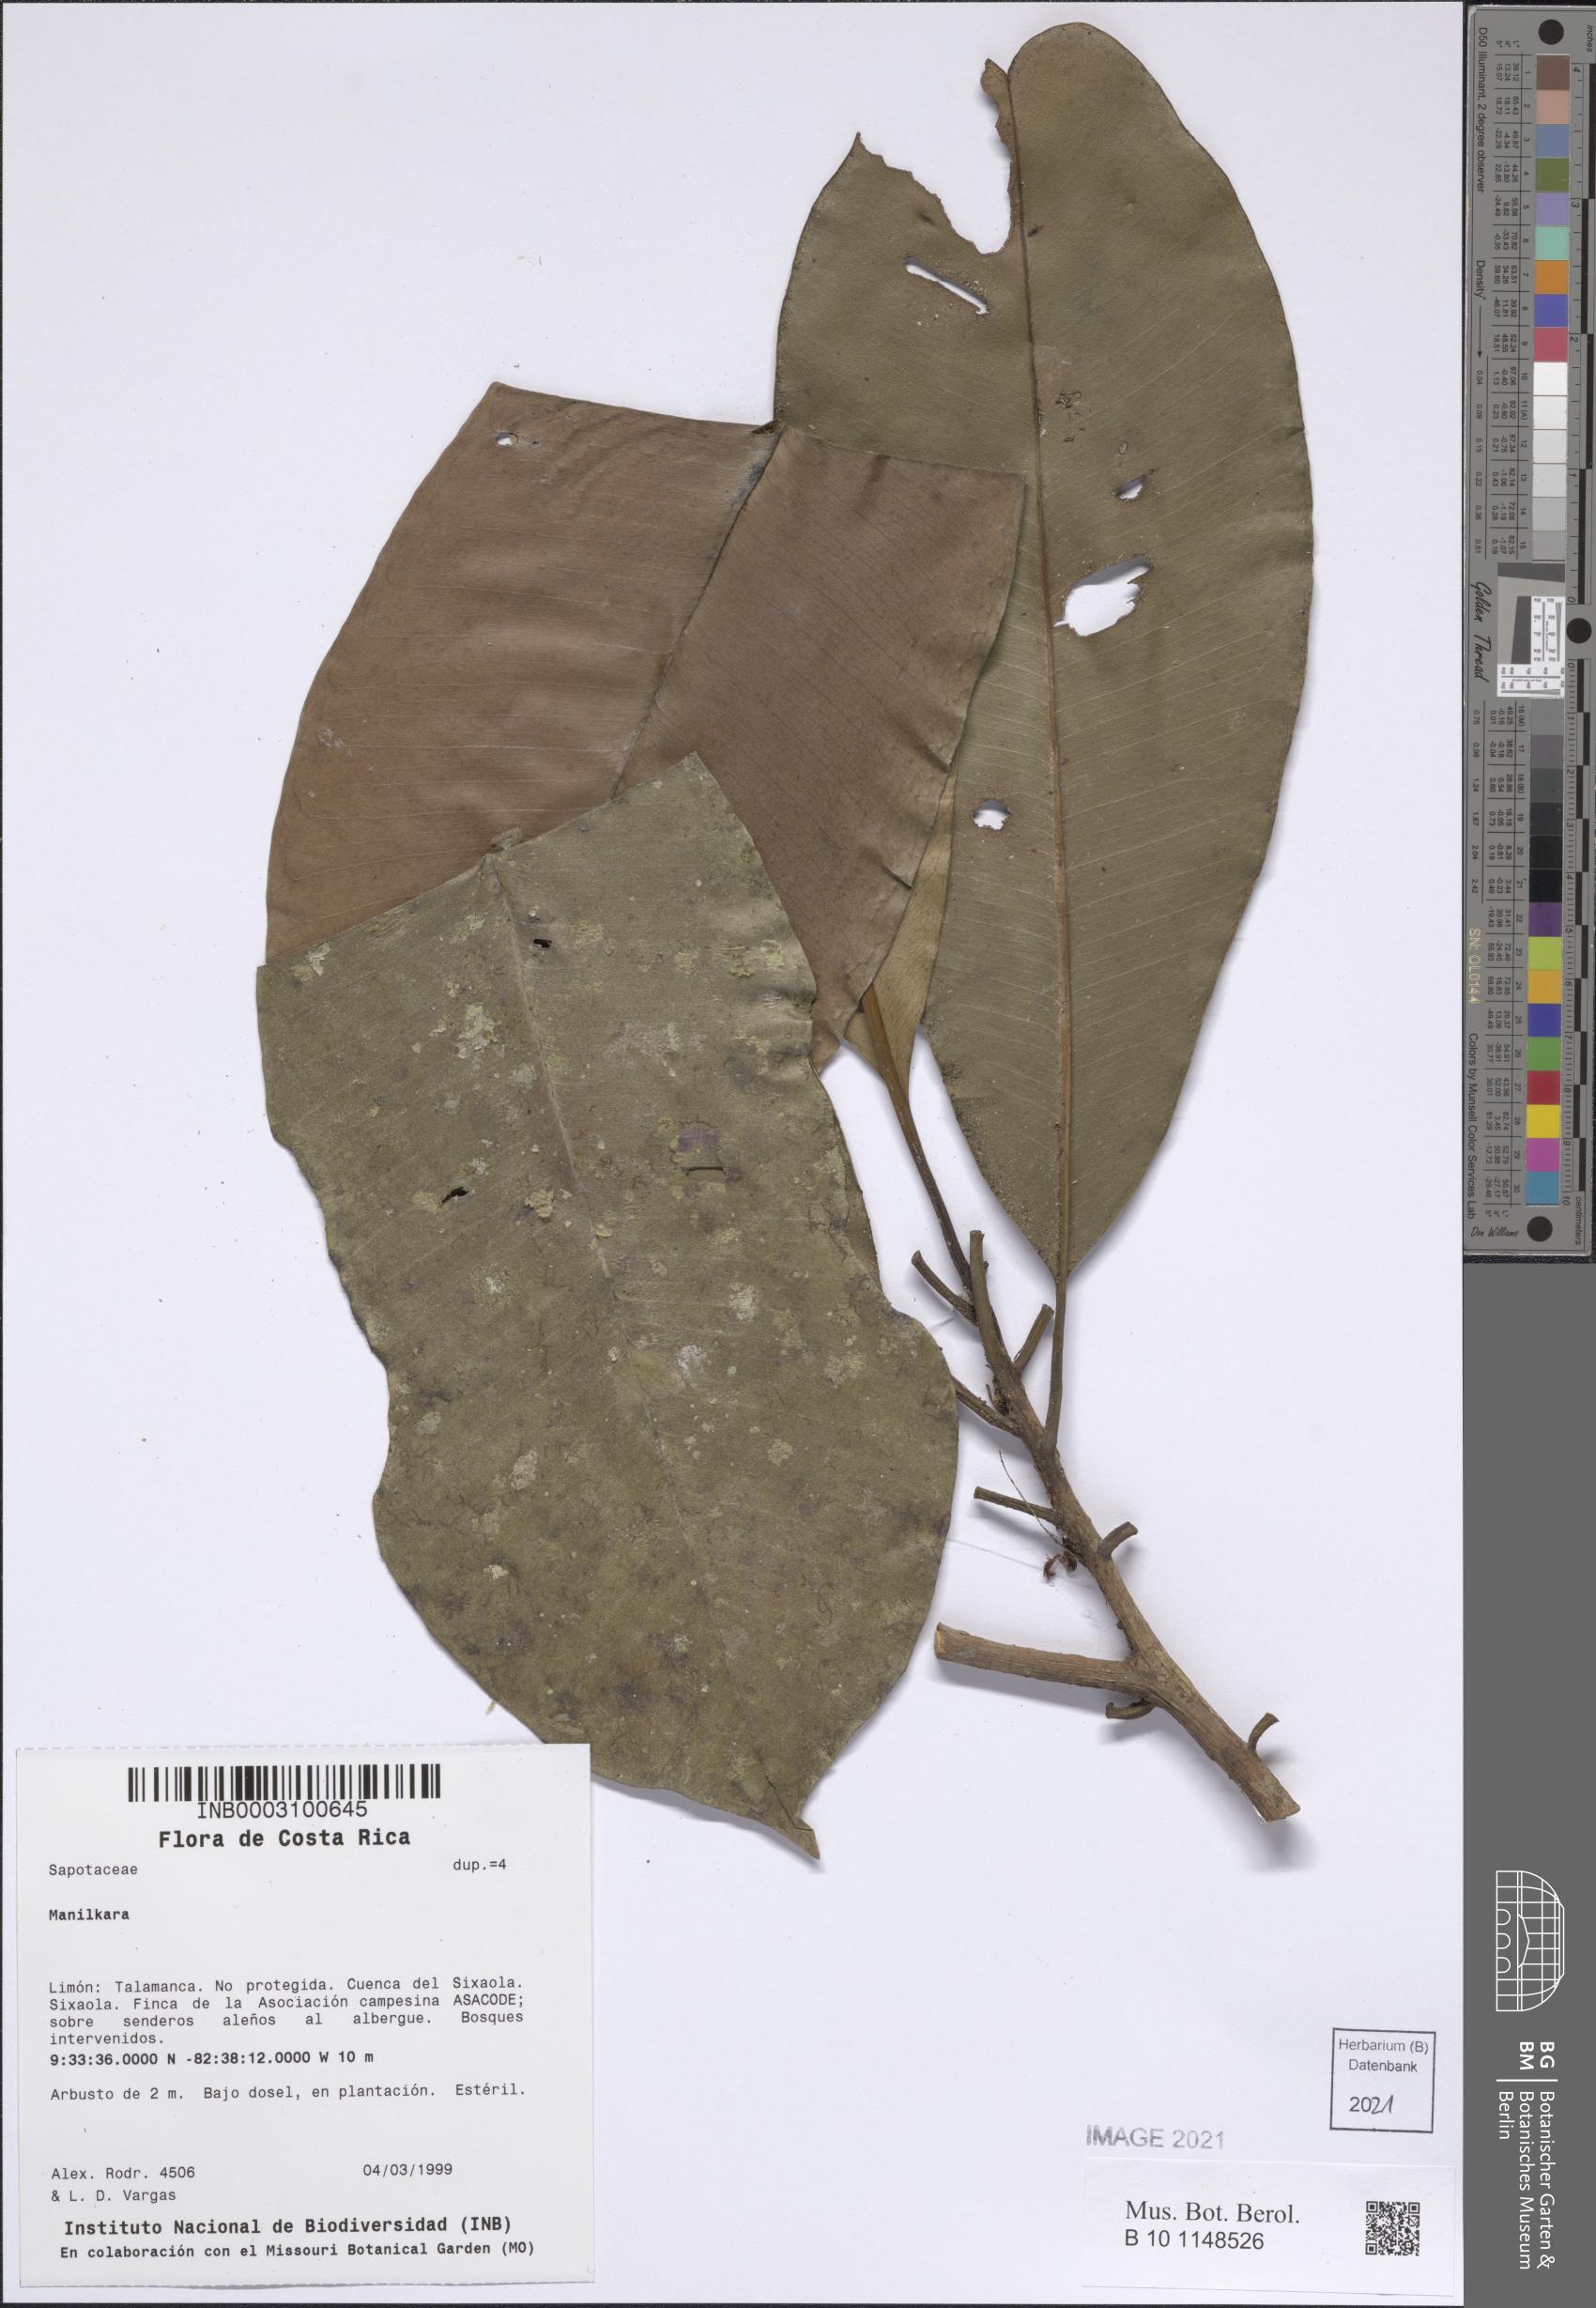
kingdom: Plantae
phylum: Tracheophyta
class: Magnoliopsida
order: Ericales
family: Sapotaceae
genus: Manilkara
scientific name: Manilkara
